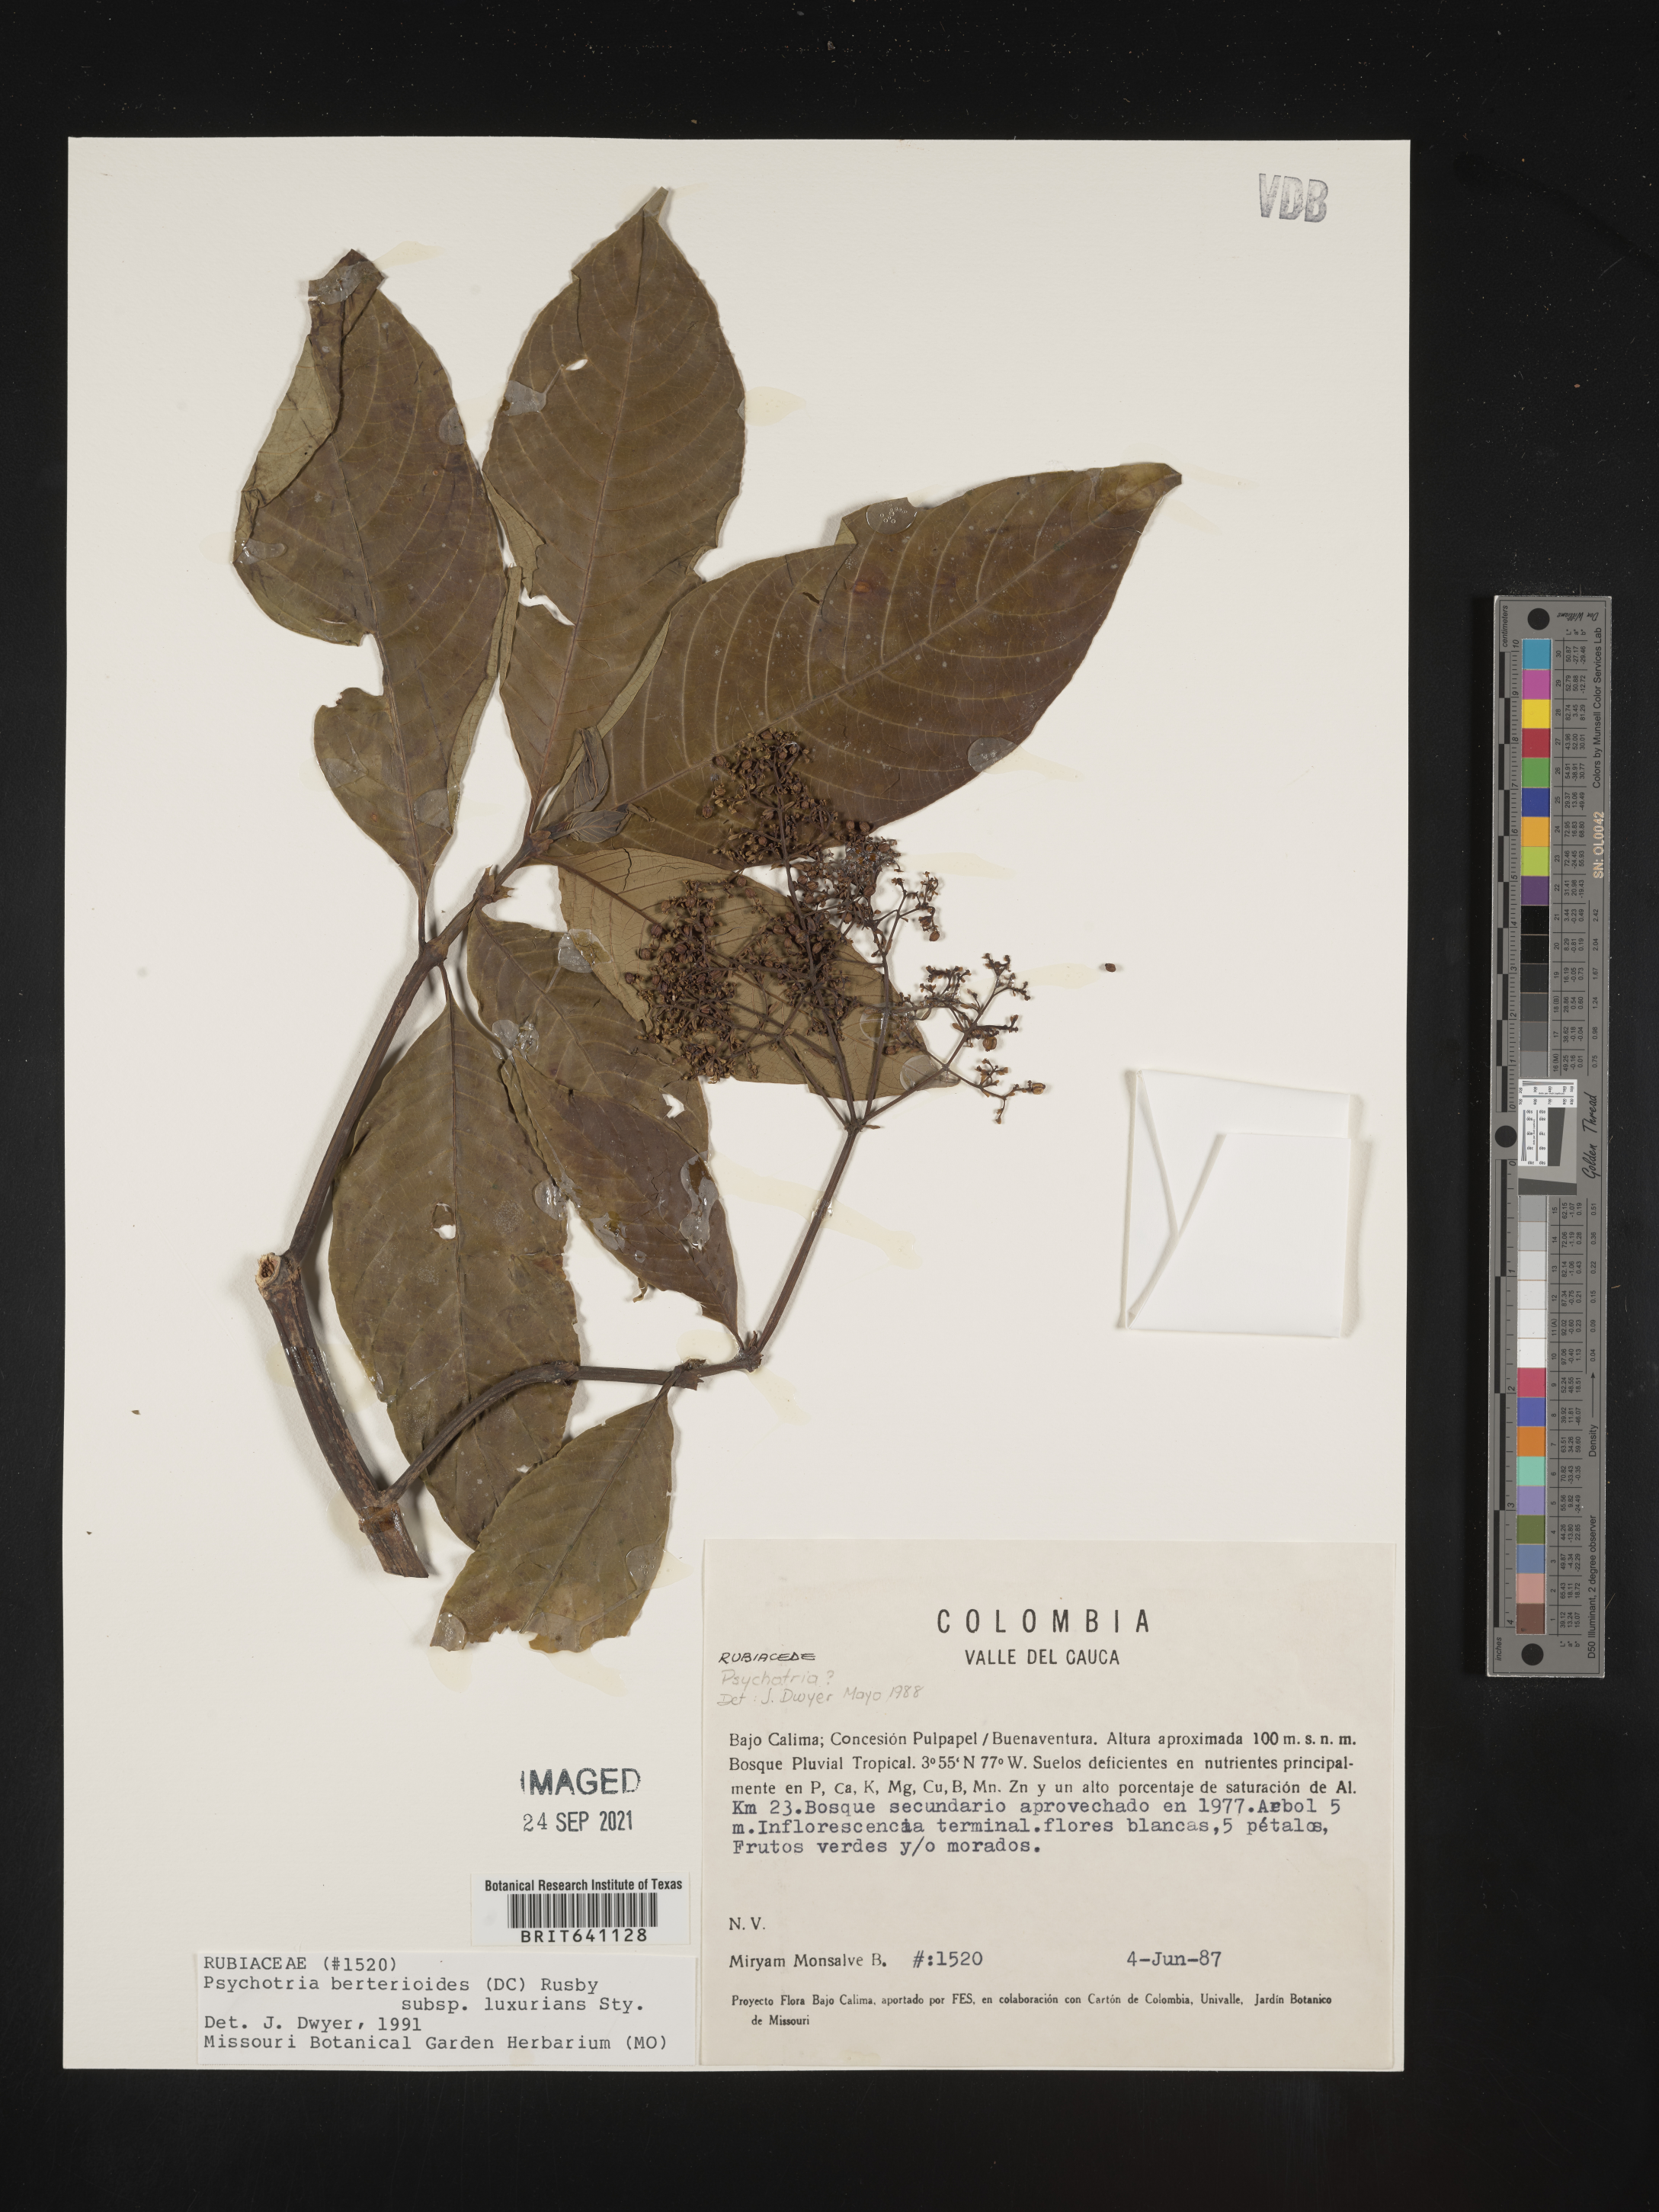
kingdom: Plantae
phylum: Tracheophyta
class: Magnoliopsida
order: Gentianales
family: Rubiaceae
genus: Psychotria
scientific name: Psychotria
